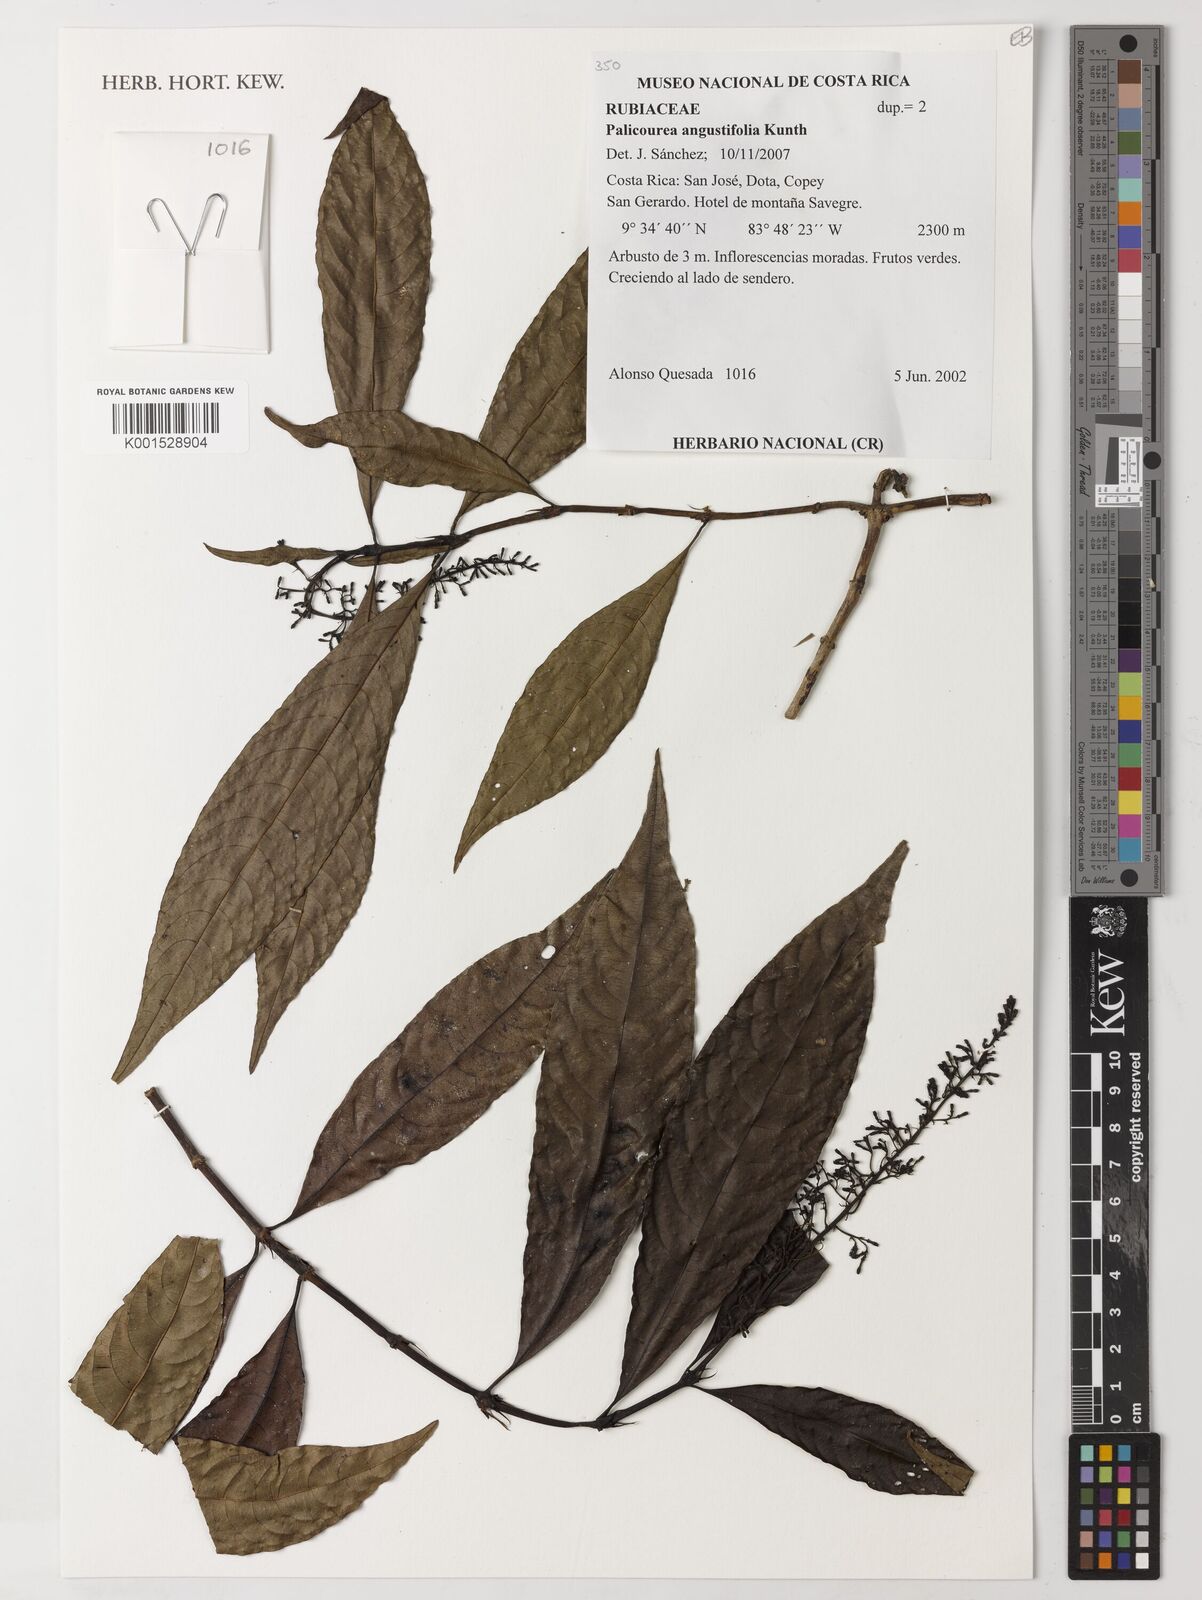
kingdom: Plantae
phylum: Tracheophyta
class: Magnoliopsida
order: Gentianales
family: Rubiaceae
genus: Palicourea
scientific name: Palicourea angustifolia
